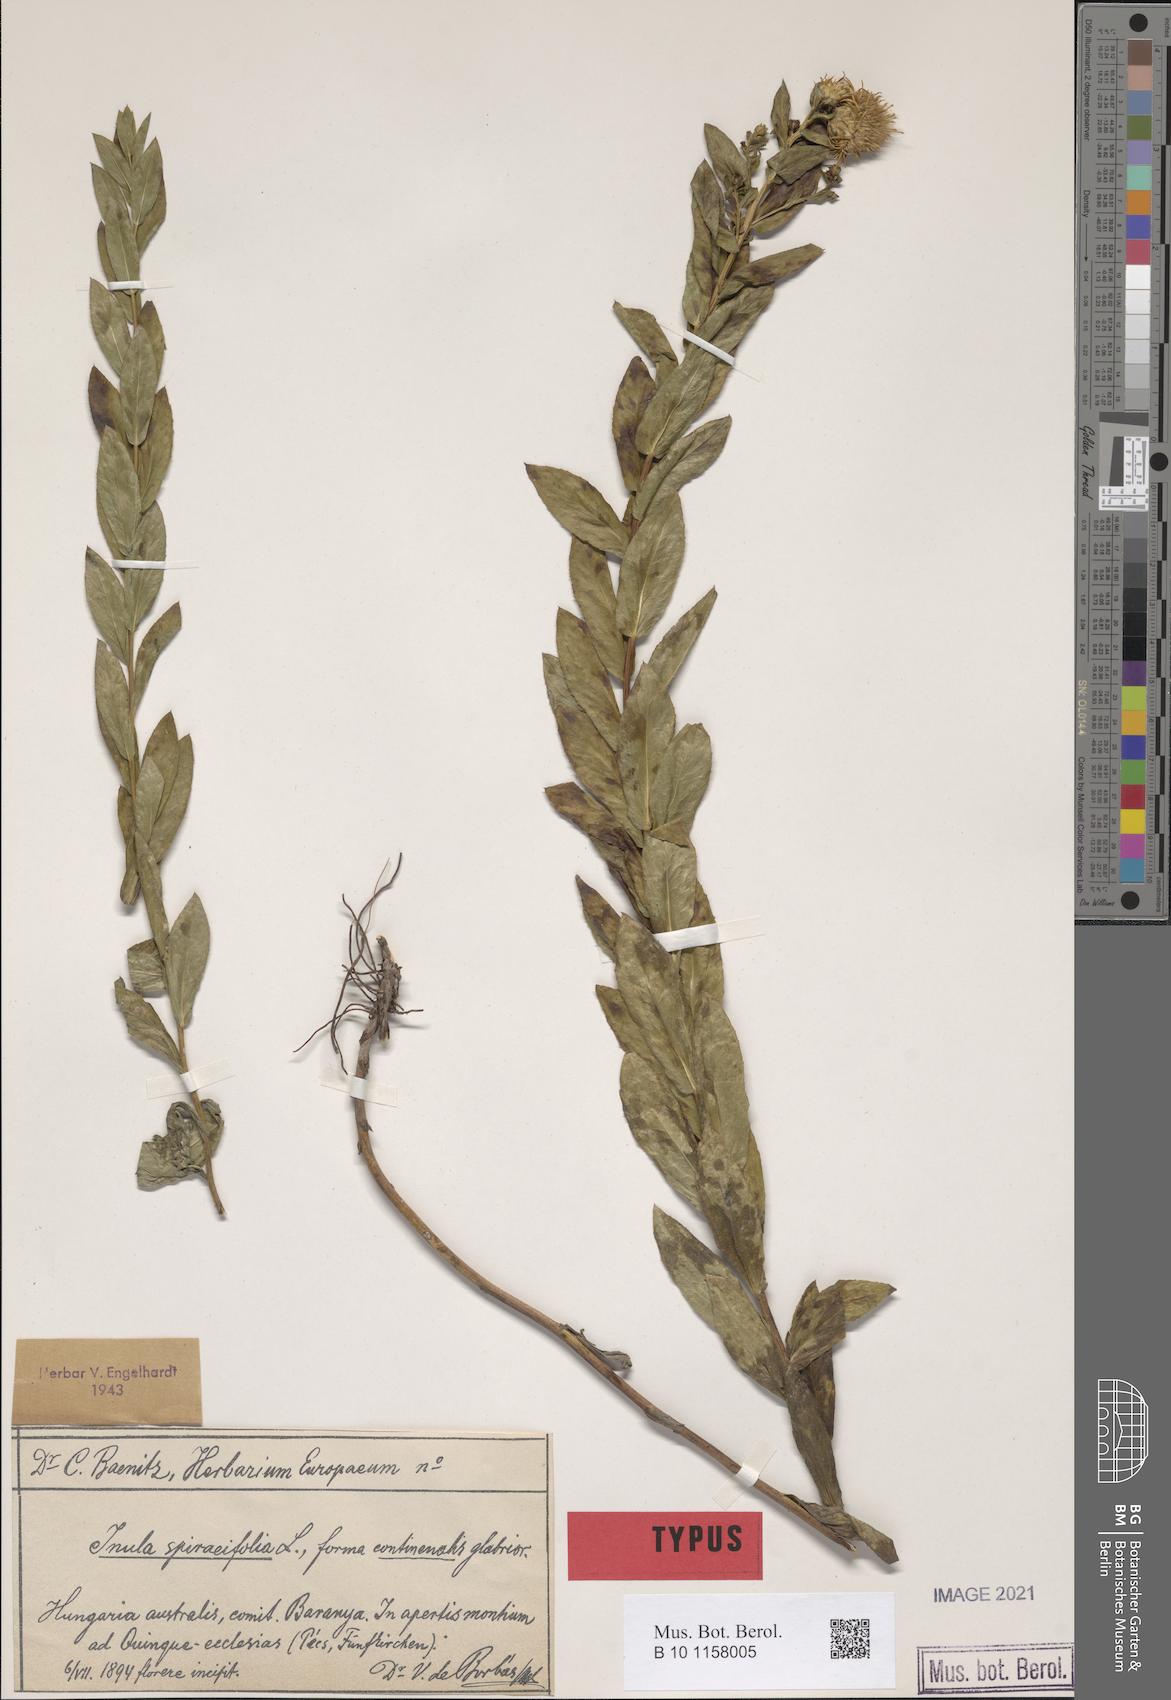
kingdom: Plantae
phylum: Tracheophyta
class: Magnoliopsida
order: Asterales
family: Asteraceae
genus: Pentanema
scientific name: Pentanema spiraeifolium
